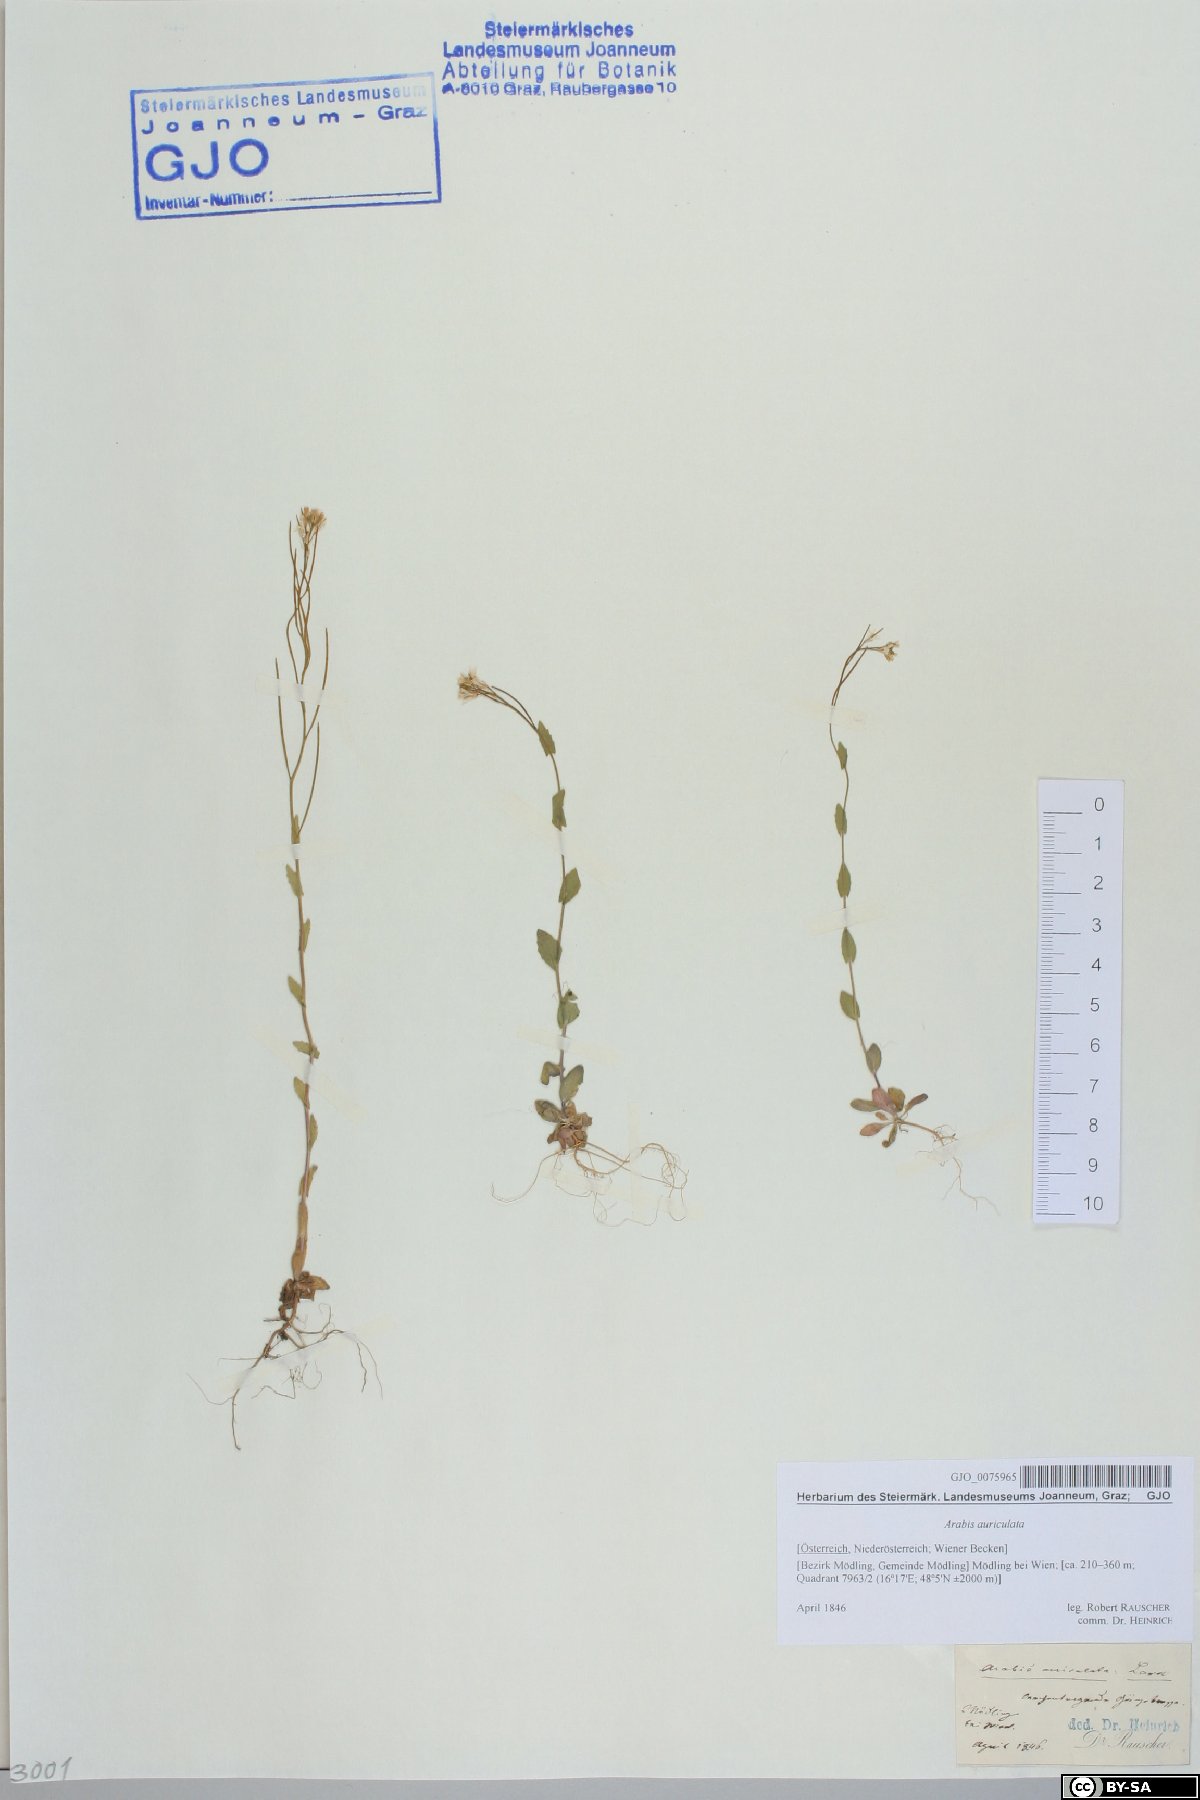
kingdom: Plantae
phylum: Tracheophyta
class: Magnoliopsida
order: Brassicales
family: Brassicaceae
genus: Arabis
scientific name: Arabis auriculata
